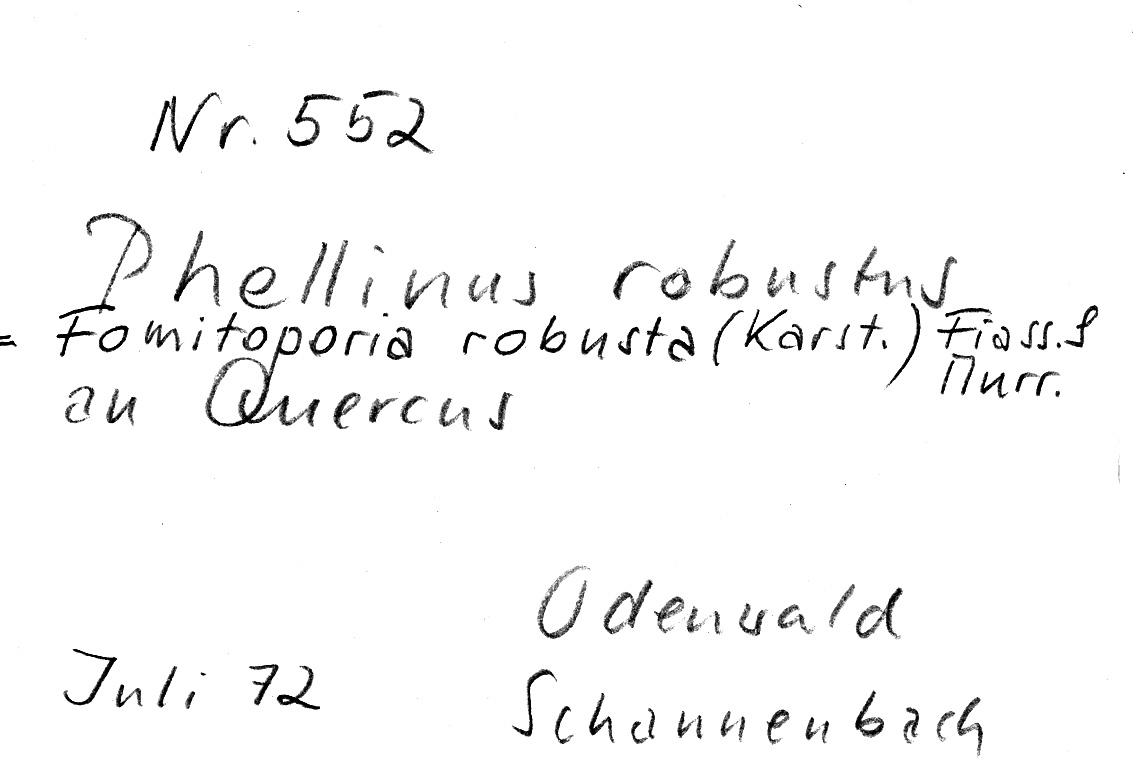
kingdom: Plantae
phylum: Tracheophyta
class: Magnoliopsida
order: Fagales
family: Fagaceae
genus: Quercus
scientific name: Quercus
